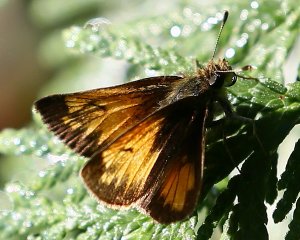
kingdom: Animalia
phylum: Arthropoda
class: Insecta
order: Lepidoptera
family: Hesperiidae
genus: Lon
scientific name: Lon hobomok
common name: Hobomok Skipper
